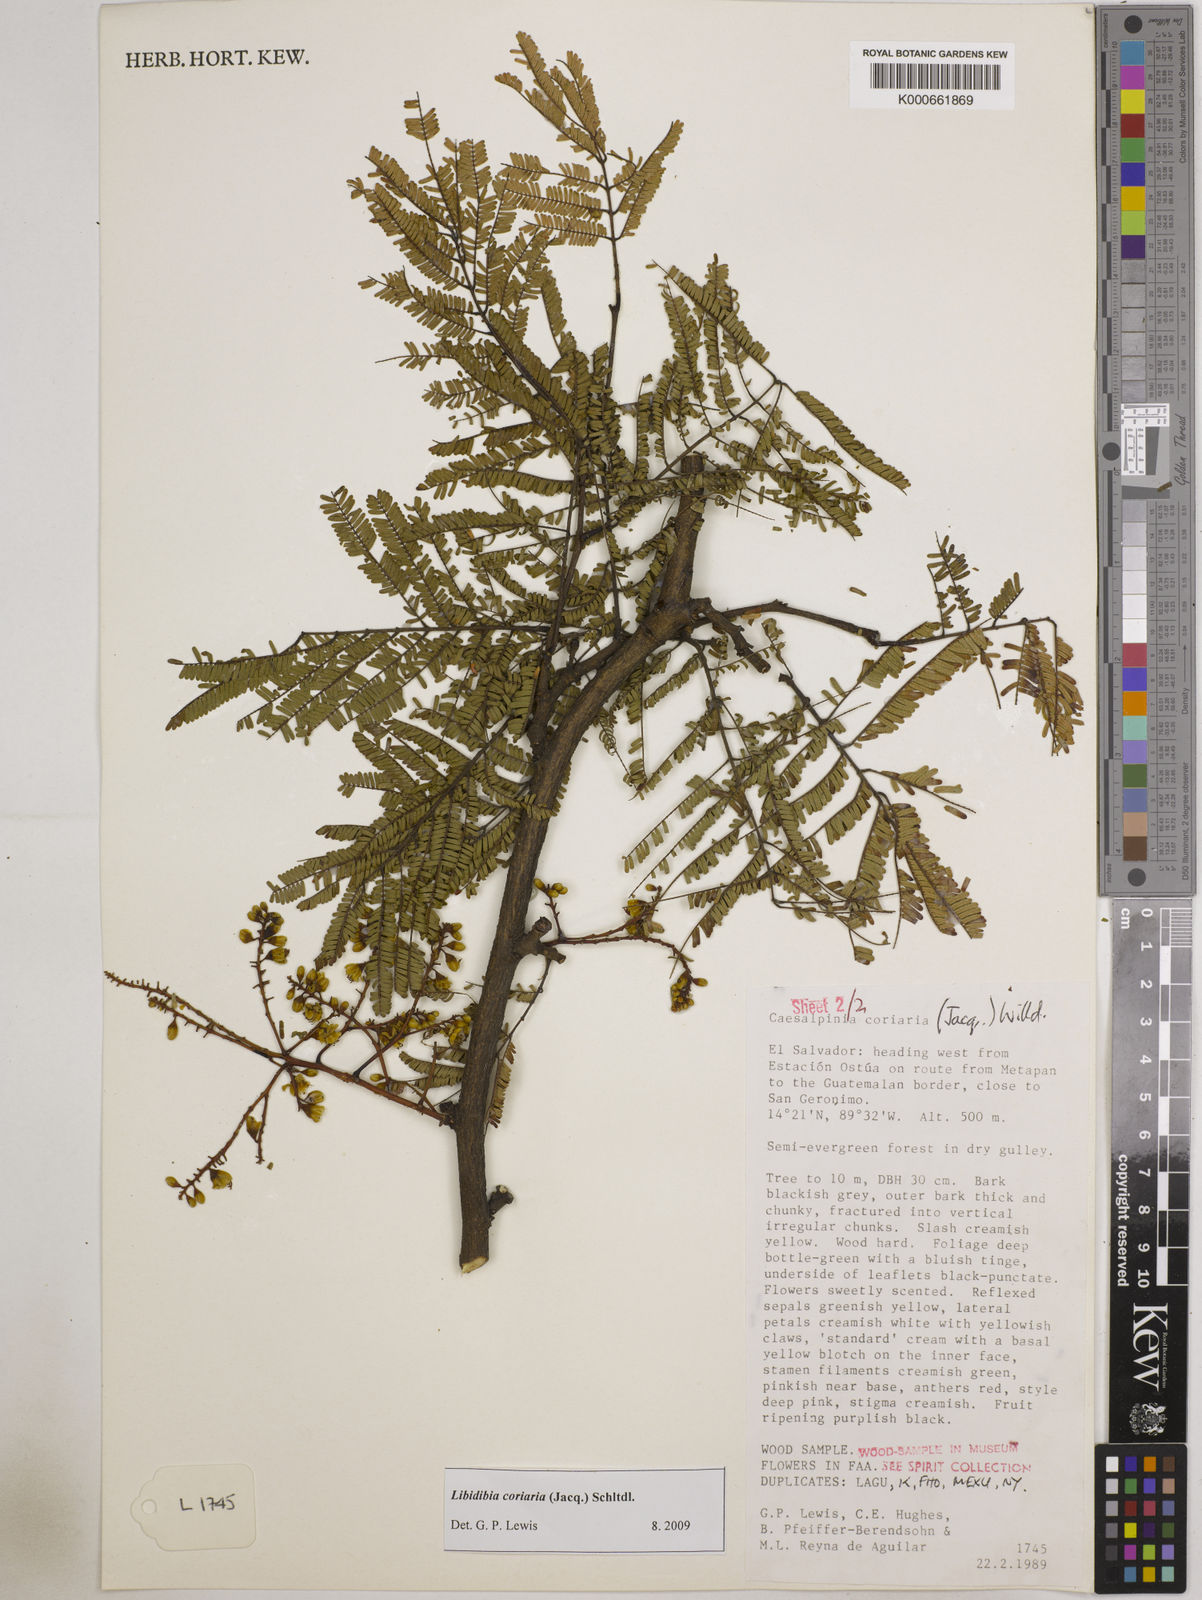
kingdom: Plantae
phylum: Tracheophyta
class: Magnoliopsida
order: Fabales
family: Fabaceae
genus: Libidibia
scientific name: Libidibia coriaria
